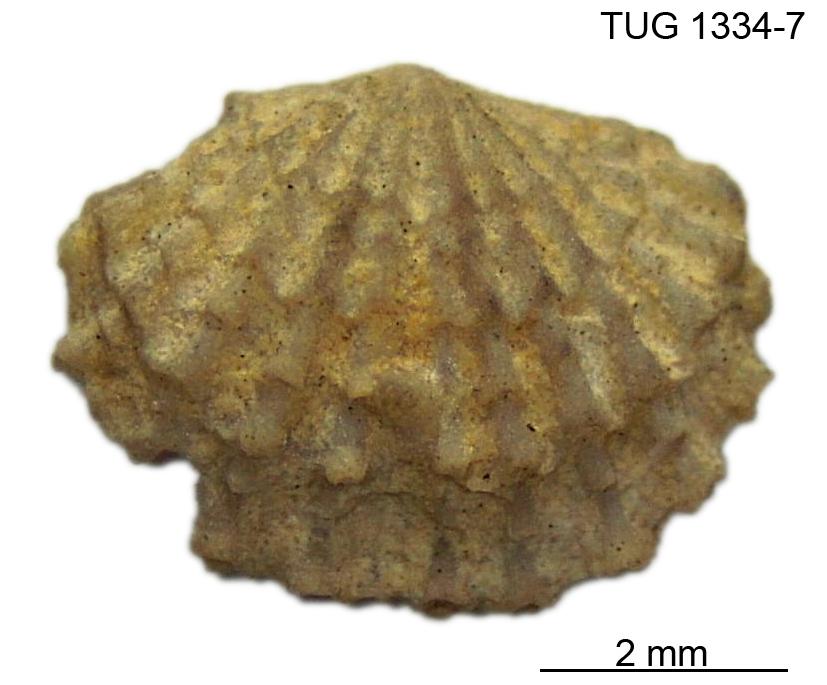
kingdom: Animalia
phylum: Brachiopoda
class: Rhynchonellata
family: Dolerorthidae
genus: Glyptorthis
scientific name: Glyptorthis squamata
